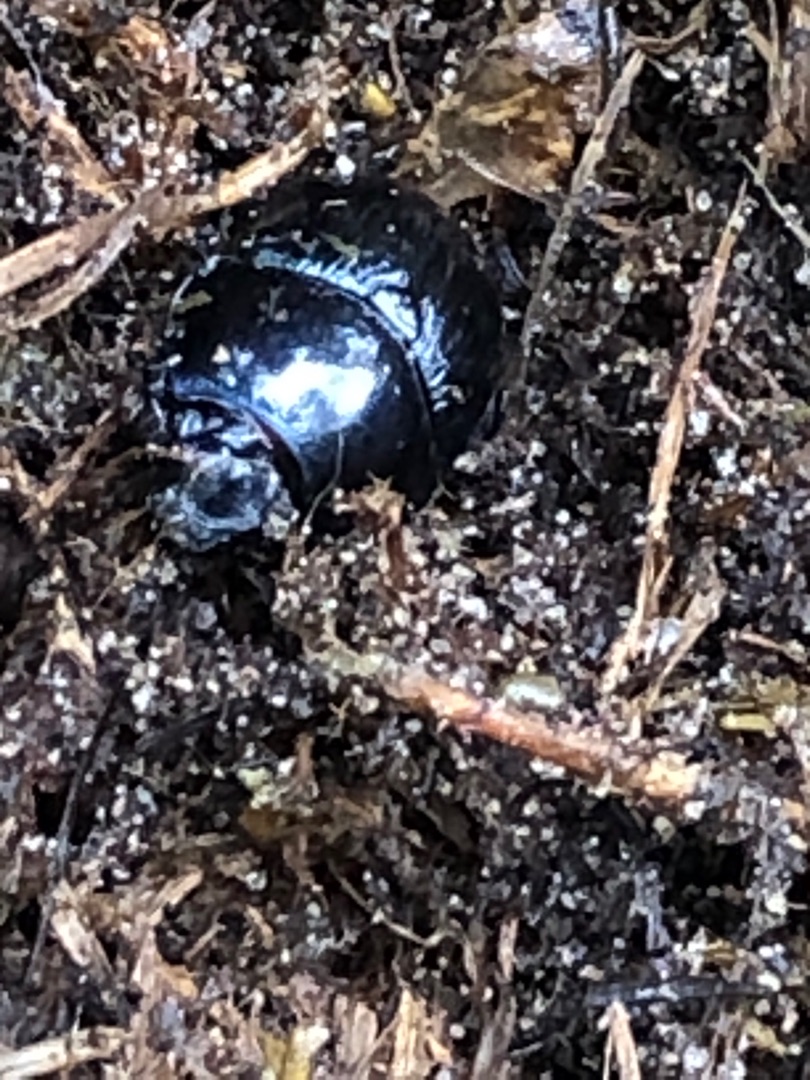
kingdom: Animalia
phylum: Arthropoda
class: Insecta
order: Coleoptera
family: Geotrupidae
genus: Anoplotrupes
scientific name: Anoplotrupes stercorosus
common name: Skovskarnbasse
